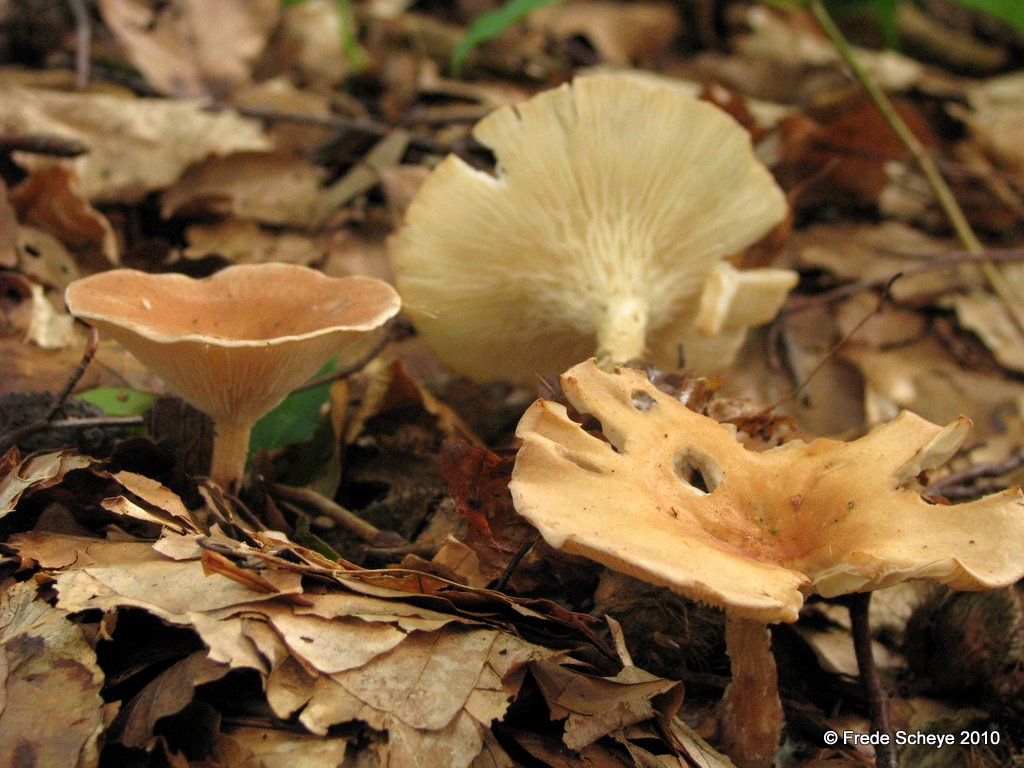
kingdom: Fungi
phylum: Basidiomycota
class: Agaricomycetes
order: Agaricales
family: Tricholomataceae
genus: Infundibulicybe
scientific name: Infundibulicybe gibba
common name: almindelig tragthat
